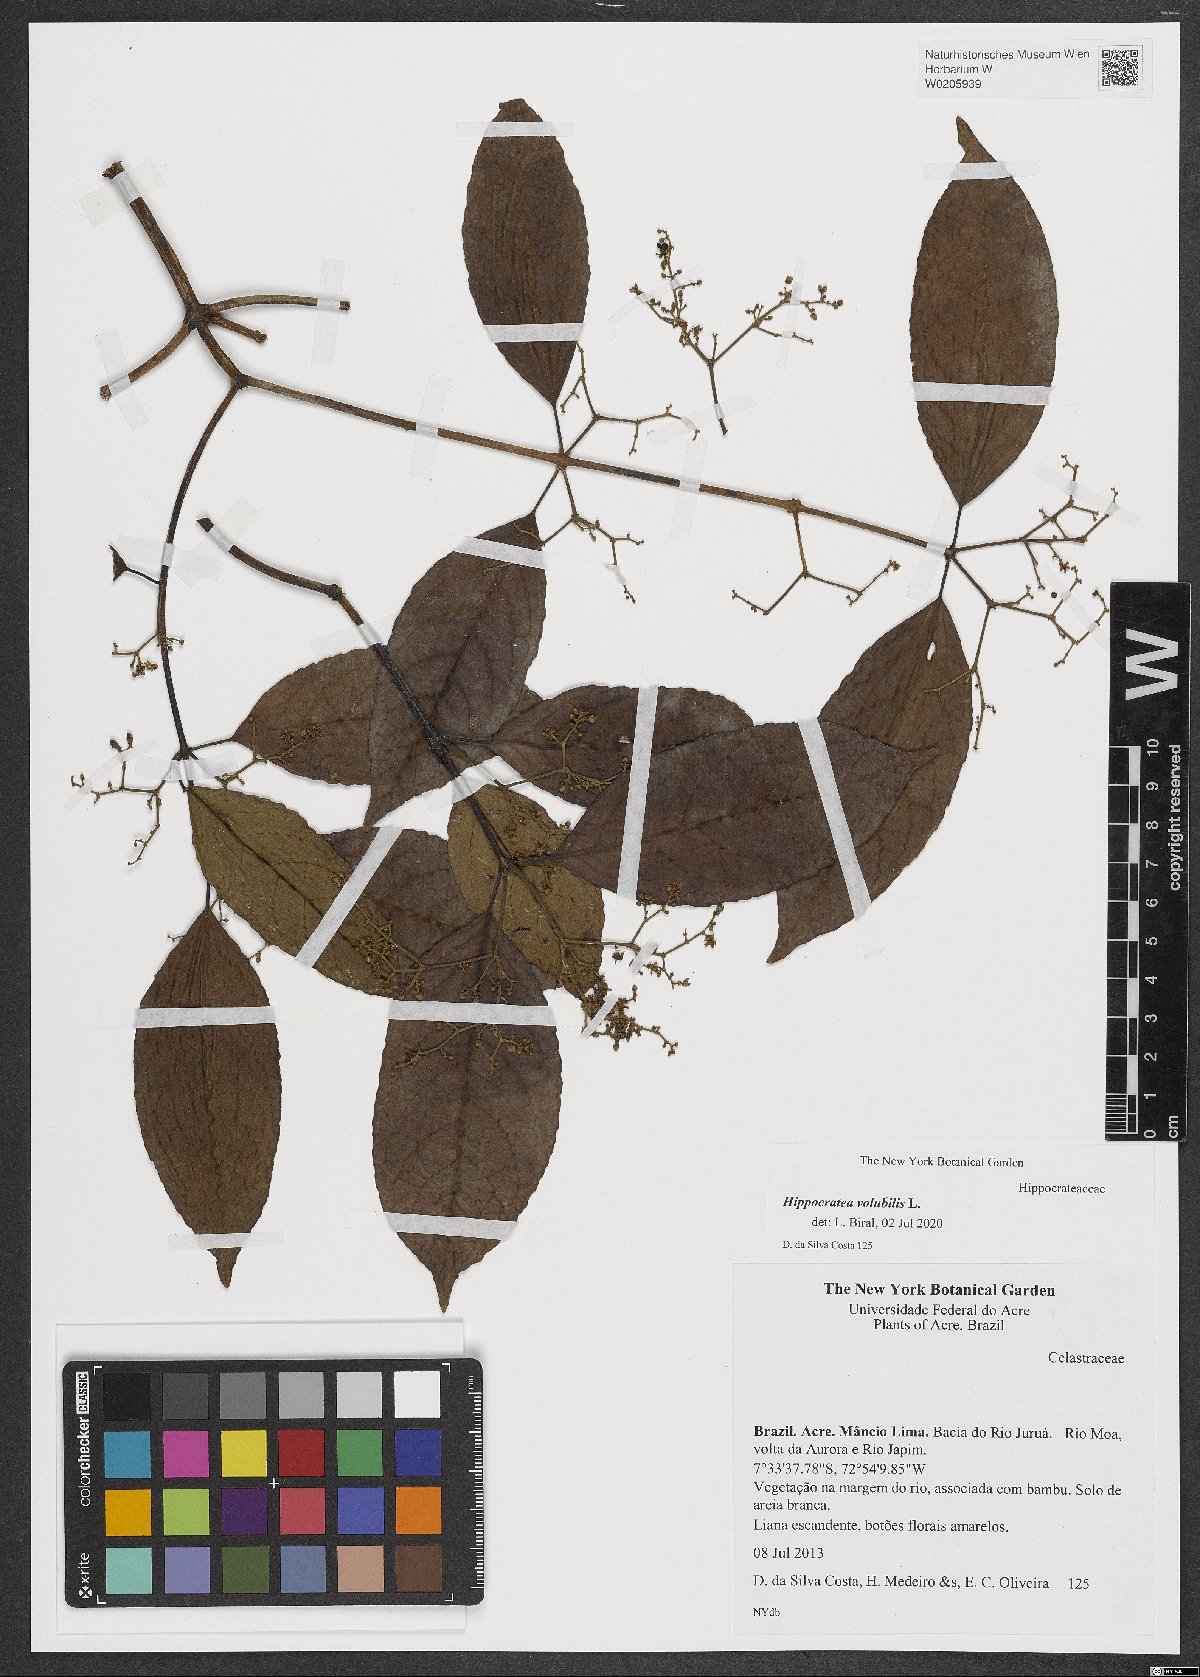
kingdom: Plantae
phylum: Tracheophyta
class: Magnoliopsida
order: Celastrales
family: Celastraceae
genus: Hippocratea
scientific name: Hippocratea volubilis
